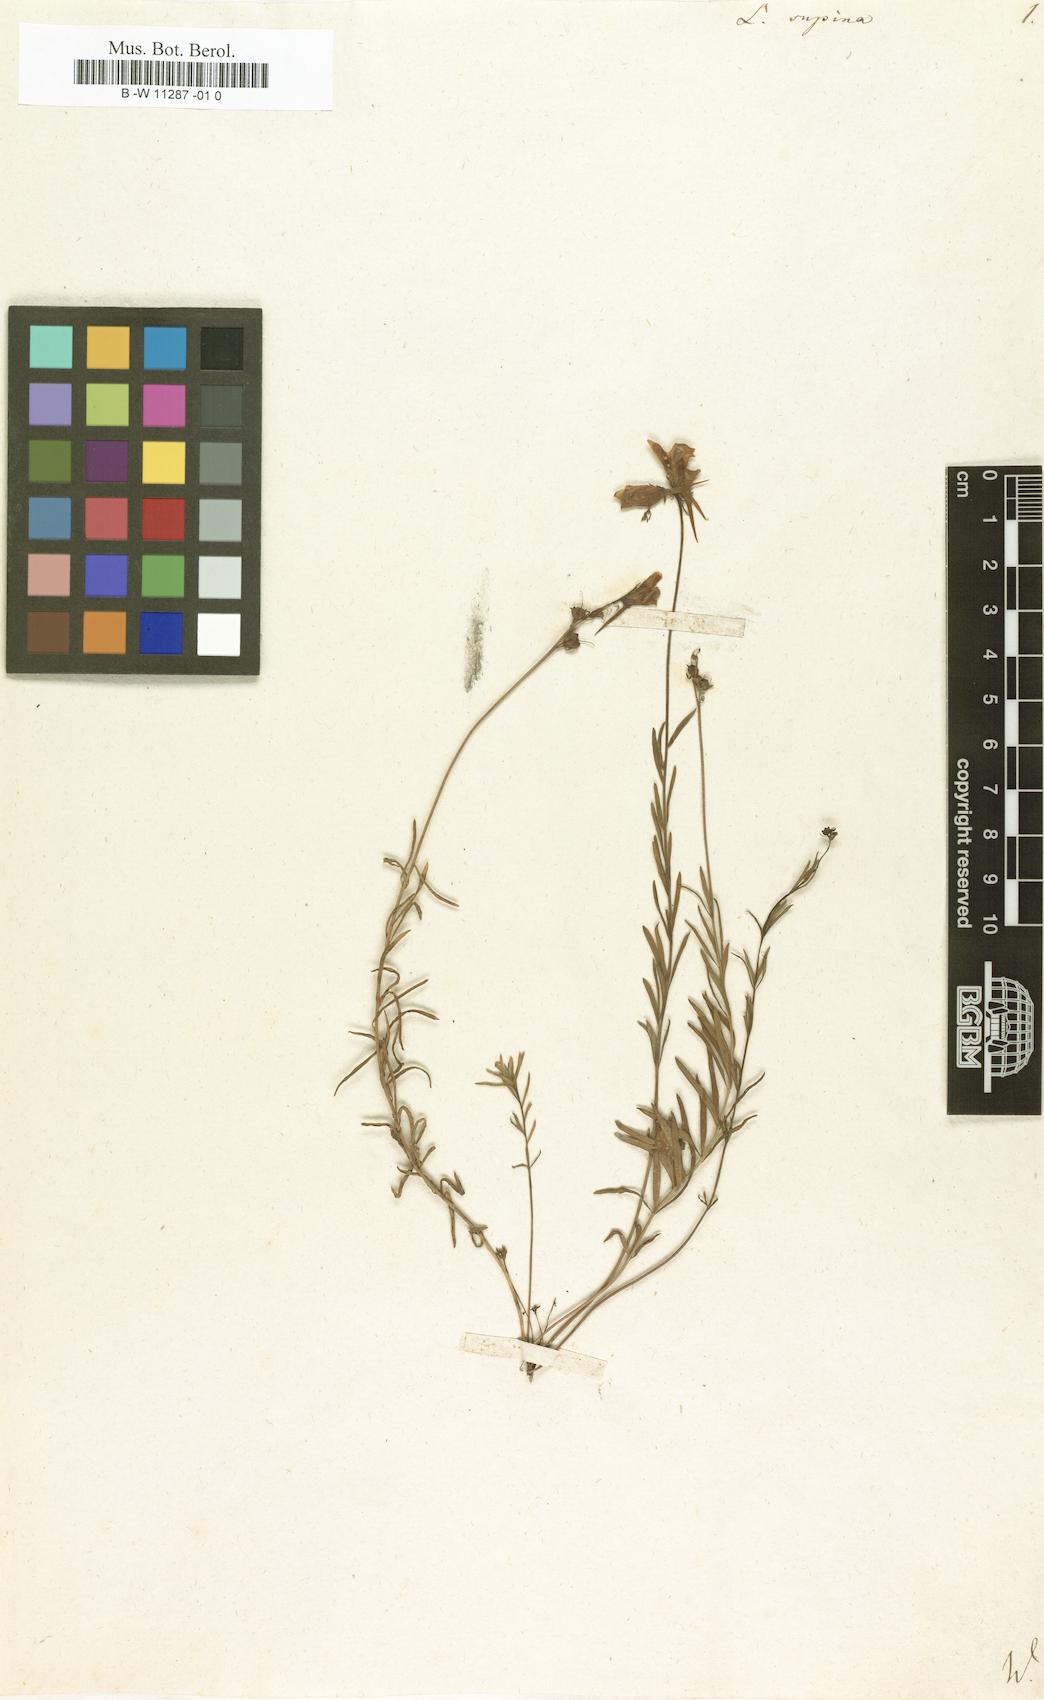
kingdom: Plantae
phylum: Tracheophyta
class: Magnoliopsida
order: Lamiales
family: Plantaginaceae
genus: Linaria
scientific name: Linaria supina
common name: Prostrate toadflax
